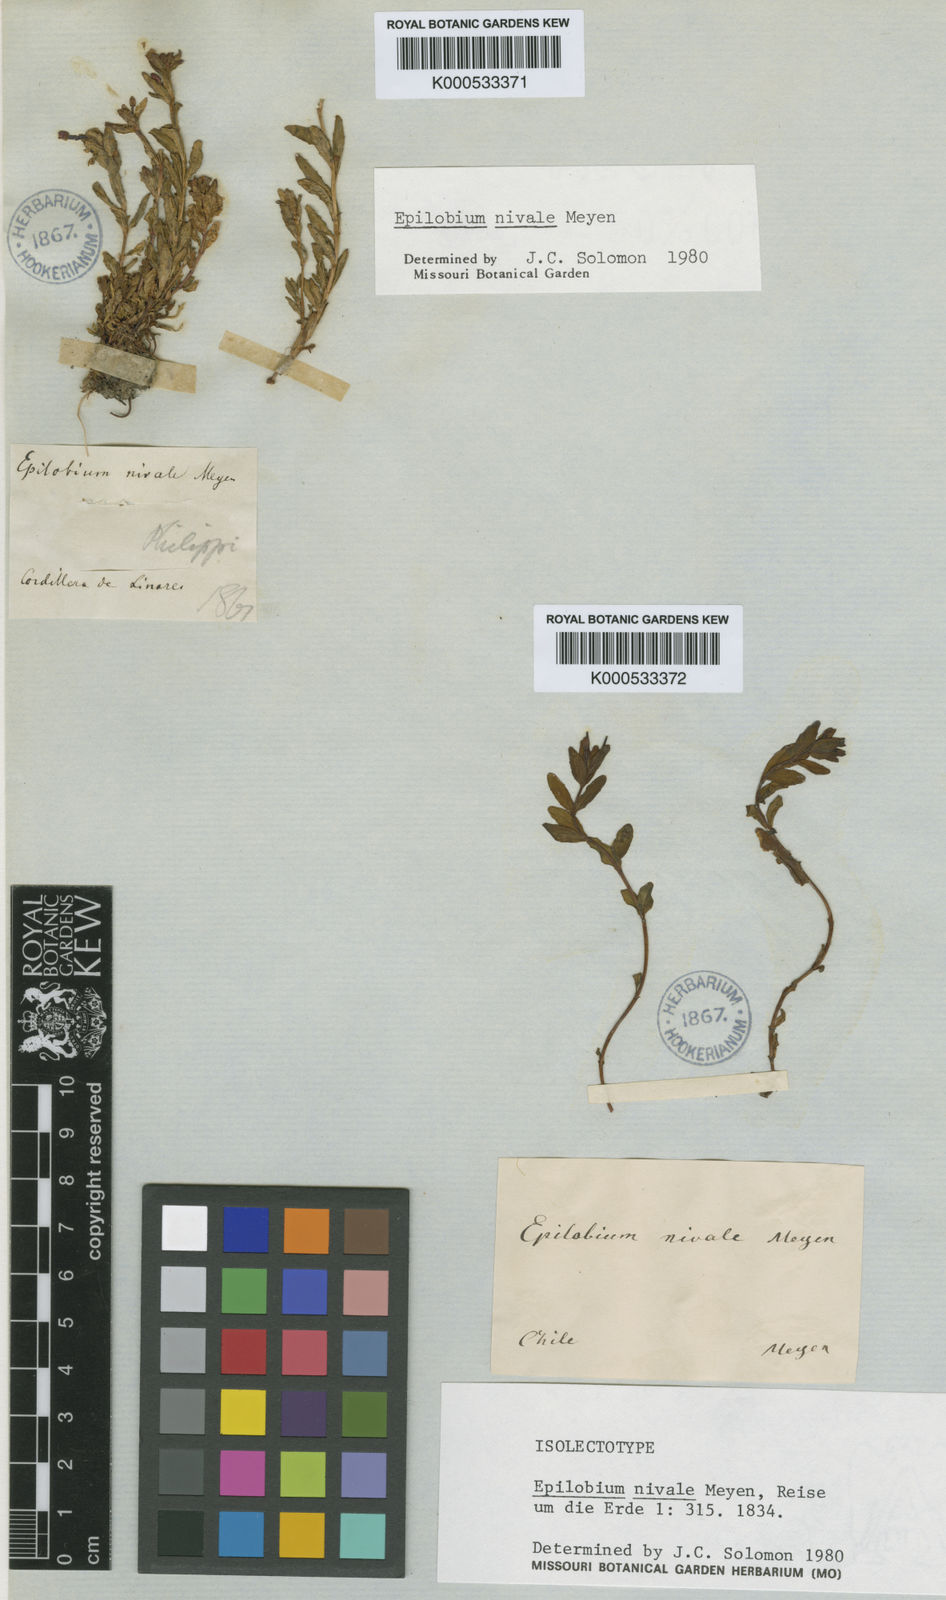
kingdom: Plantae
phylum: Tracheophyta
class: Magnoliopsida
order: Myrtales
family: Onagraceae
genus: Epilobium
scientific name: Epilobium nivale
